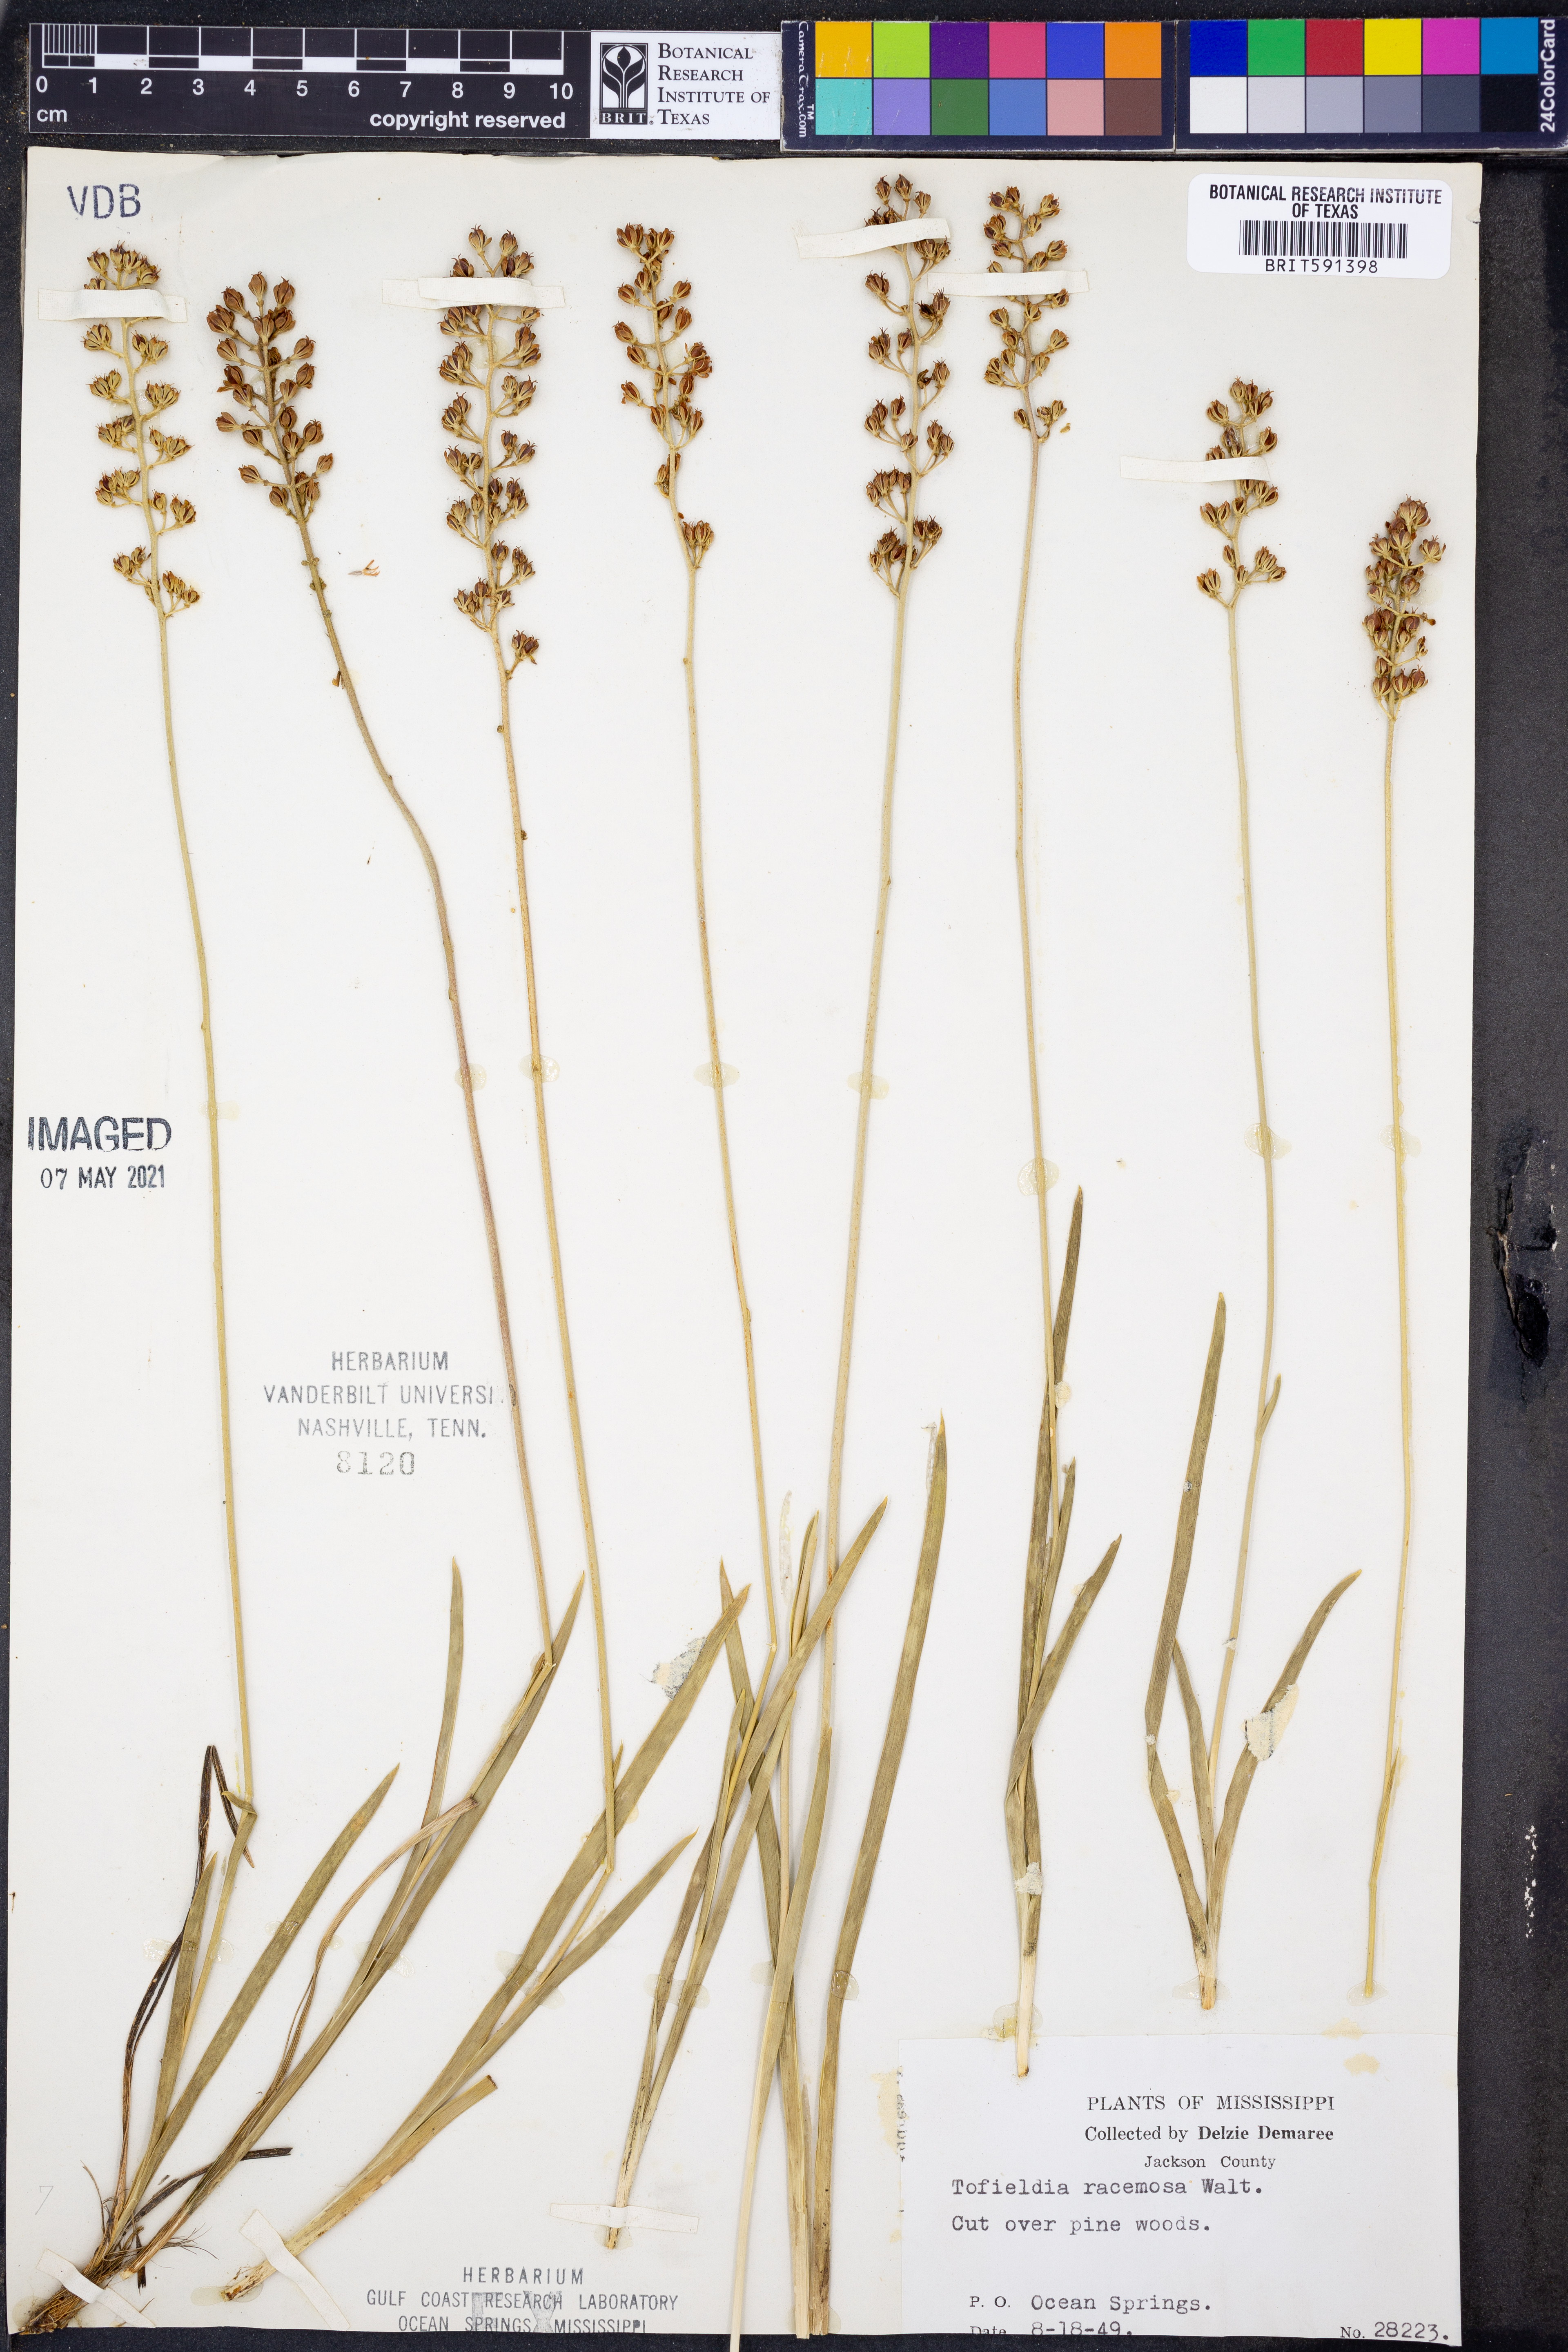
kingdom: Plantae
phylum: Tracheophyta
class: Liliopsida
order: Alismatales
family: Tofieldiaceae
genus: Triantha
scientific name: Triantha racemosa
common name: Coastal false asphodel
